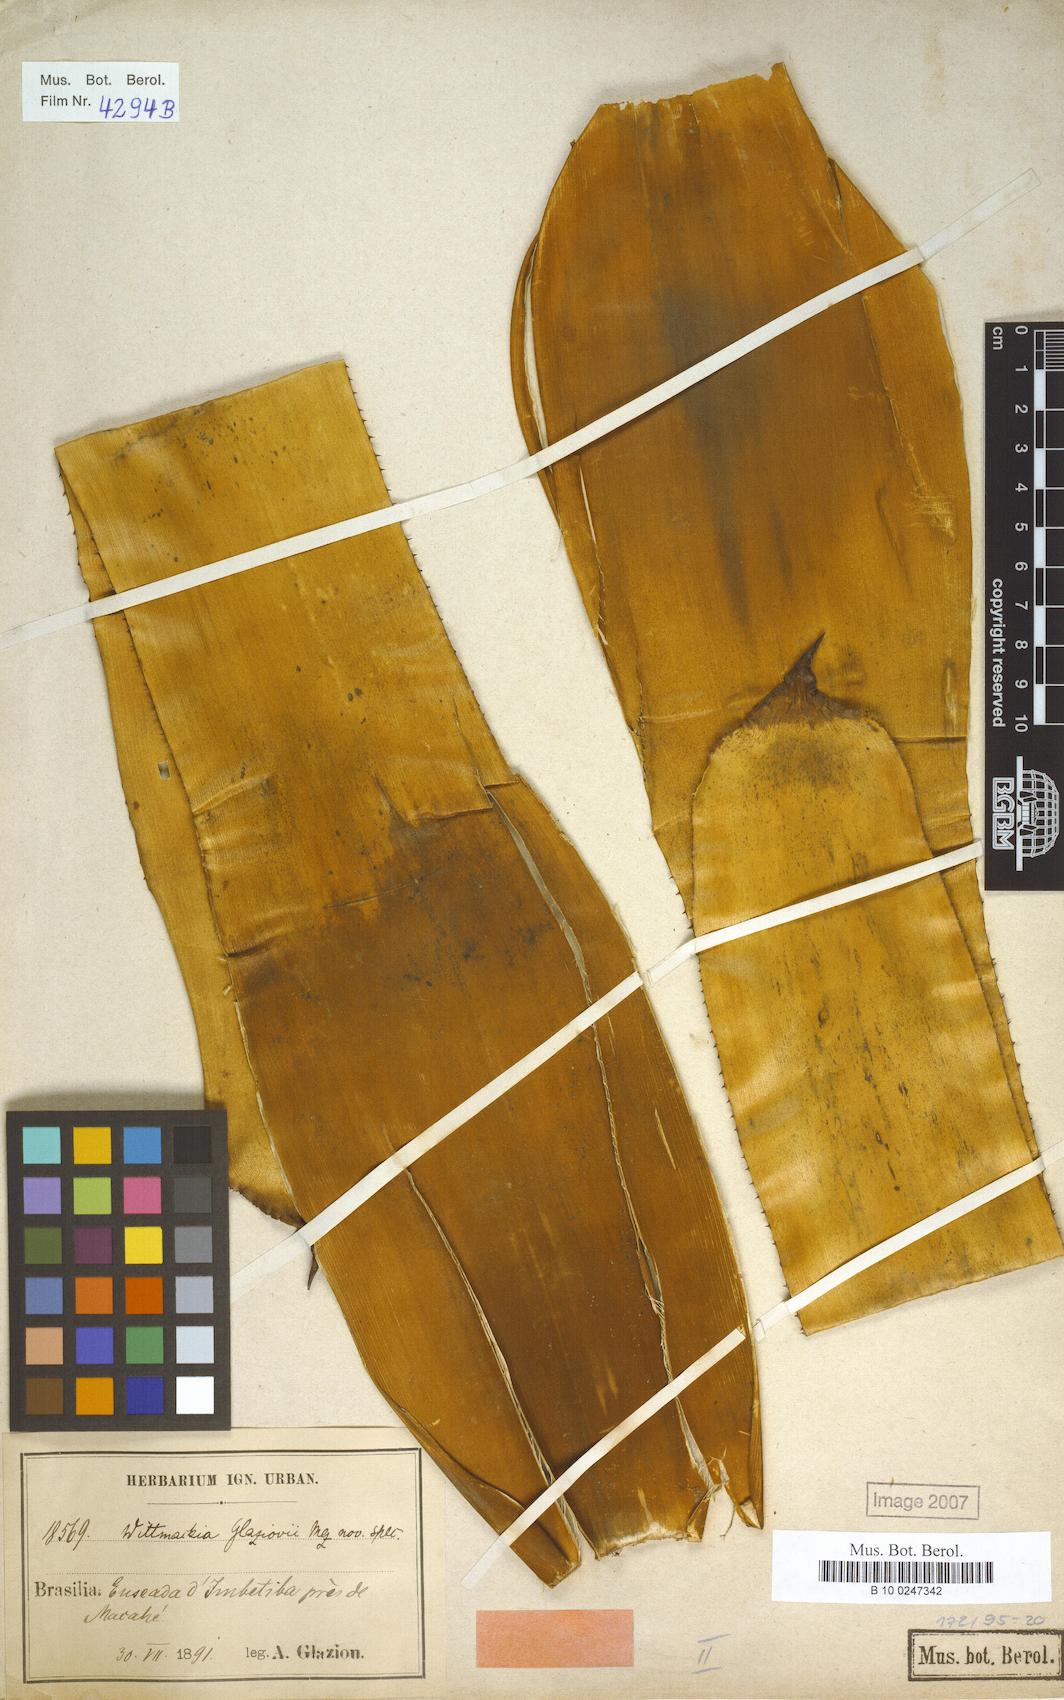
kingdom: Plantae
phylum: Tracheophyta
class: Liliopsida
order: Poales
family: Bromeliaceae
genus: Wittmackia
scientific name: Wittmackia lingulata
